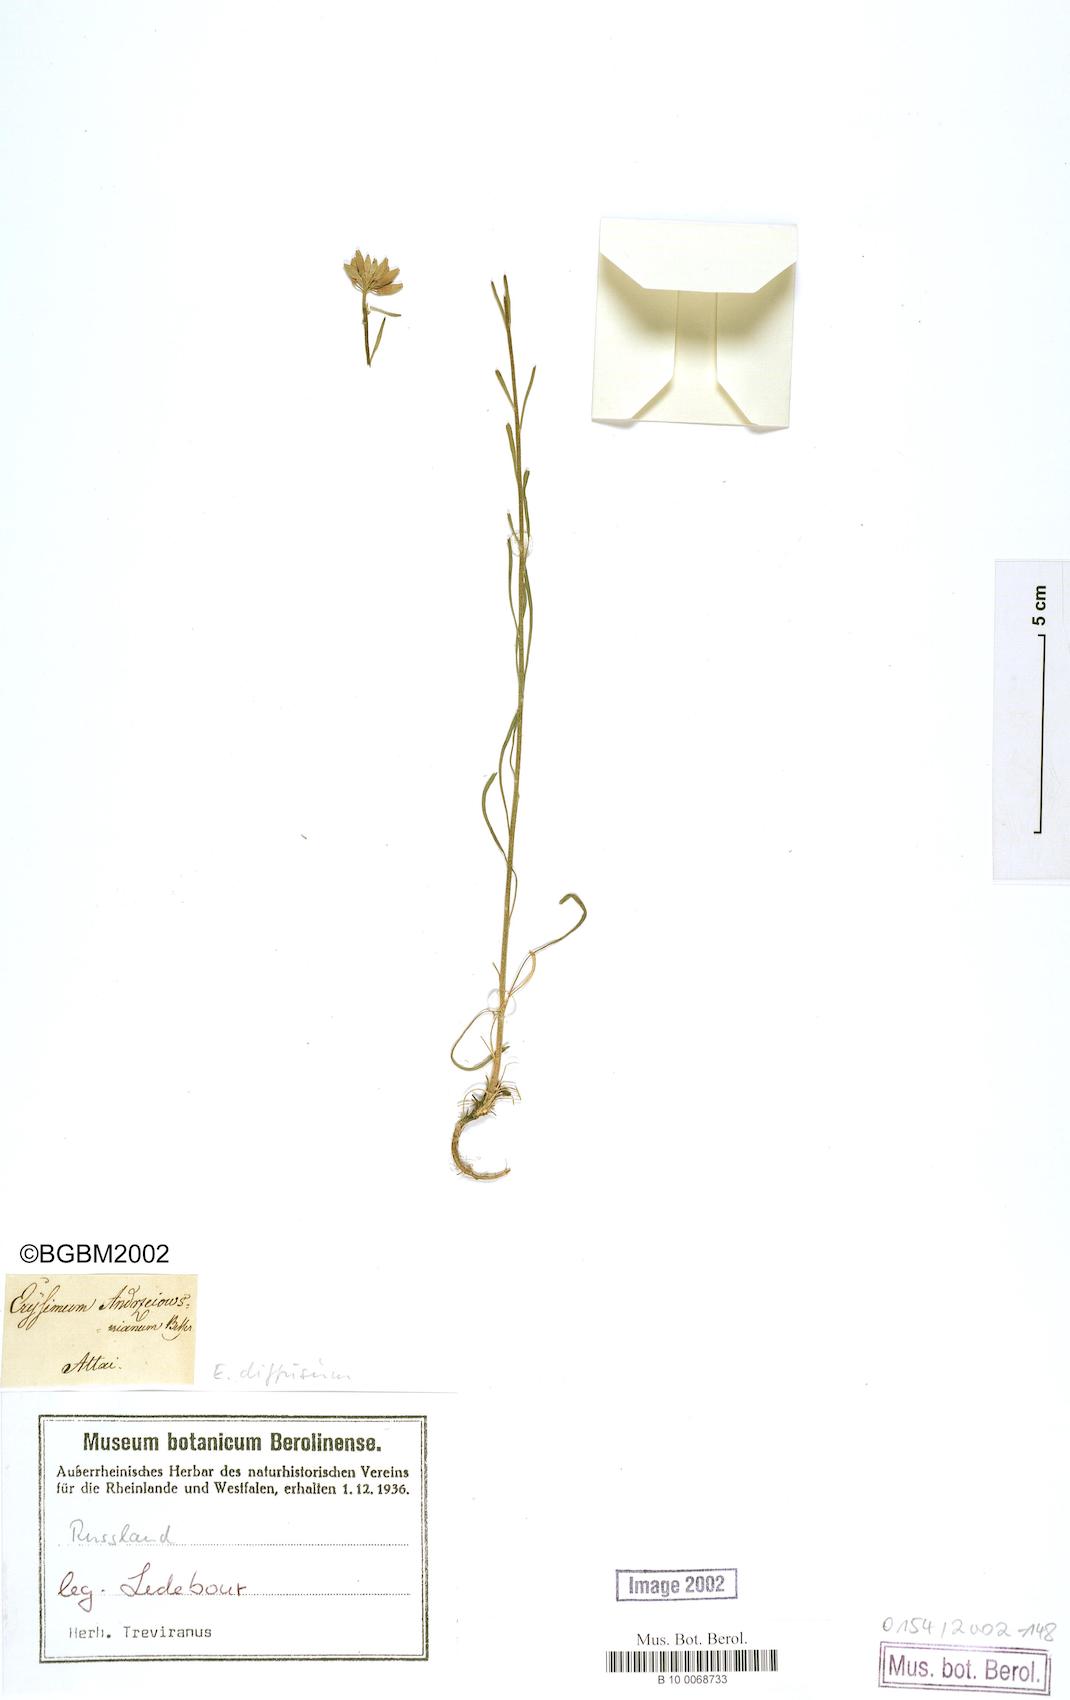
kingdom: Plantae
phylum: Tracheophyta
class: Magnoliopsida
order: Brassicales
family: Brassicaceae
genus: Erysimum
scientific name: Erysimum diffusum
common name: Diffuse wallflower
